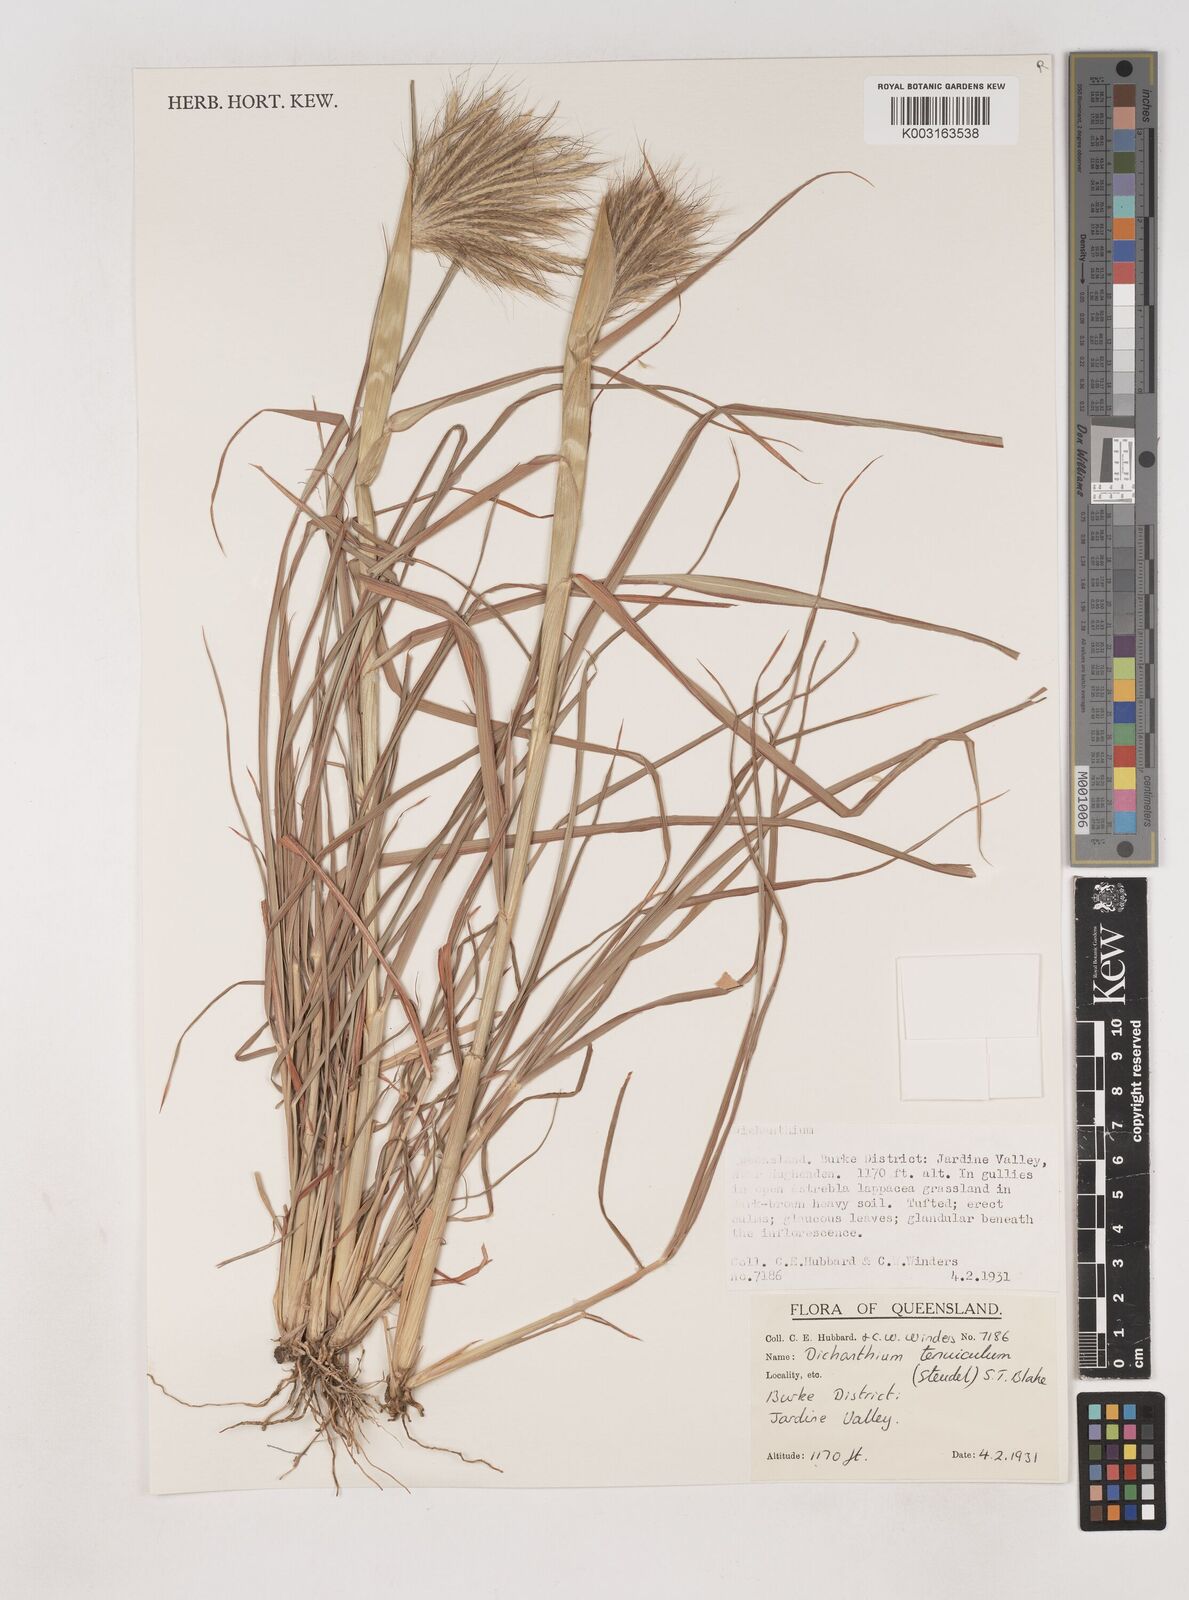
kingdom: Plantae
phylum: Tracheophyta
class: Liliopsida
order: Poales
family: Poaceae
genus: Dichanthium
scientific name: Dichanthium sericeum
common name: Silky bluestem
